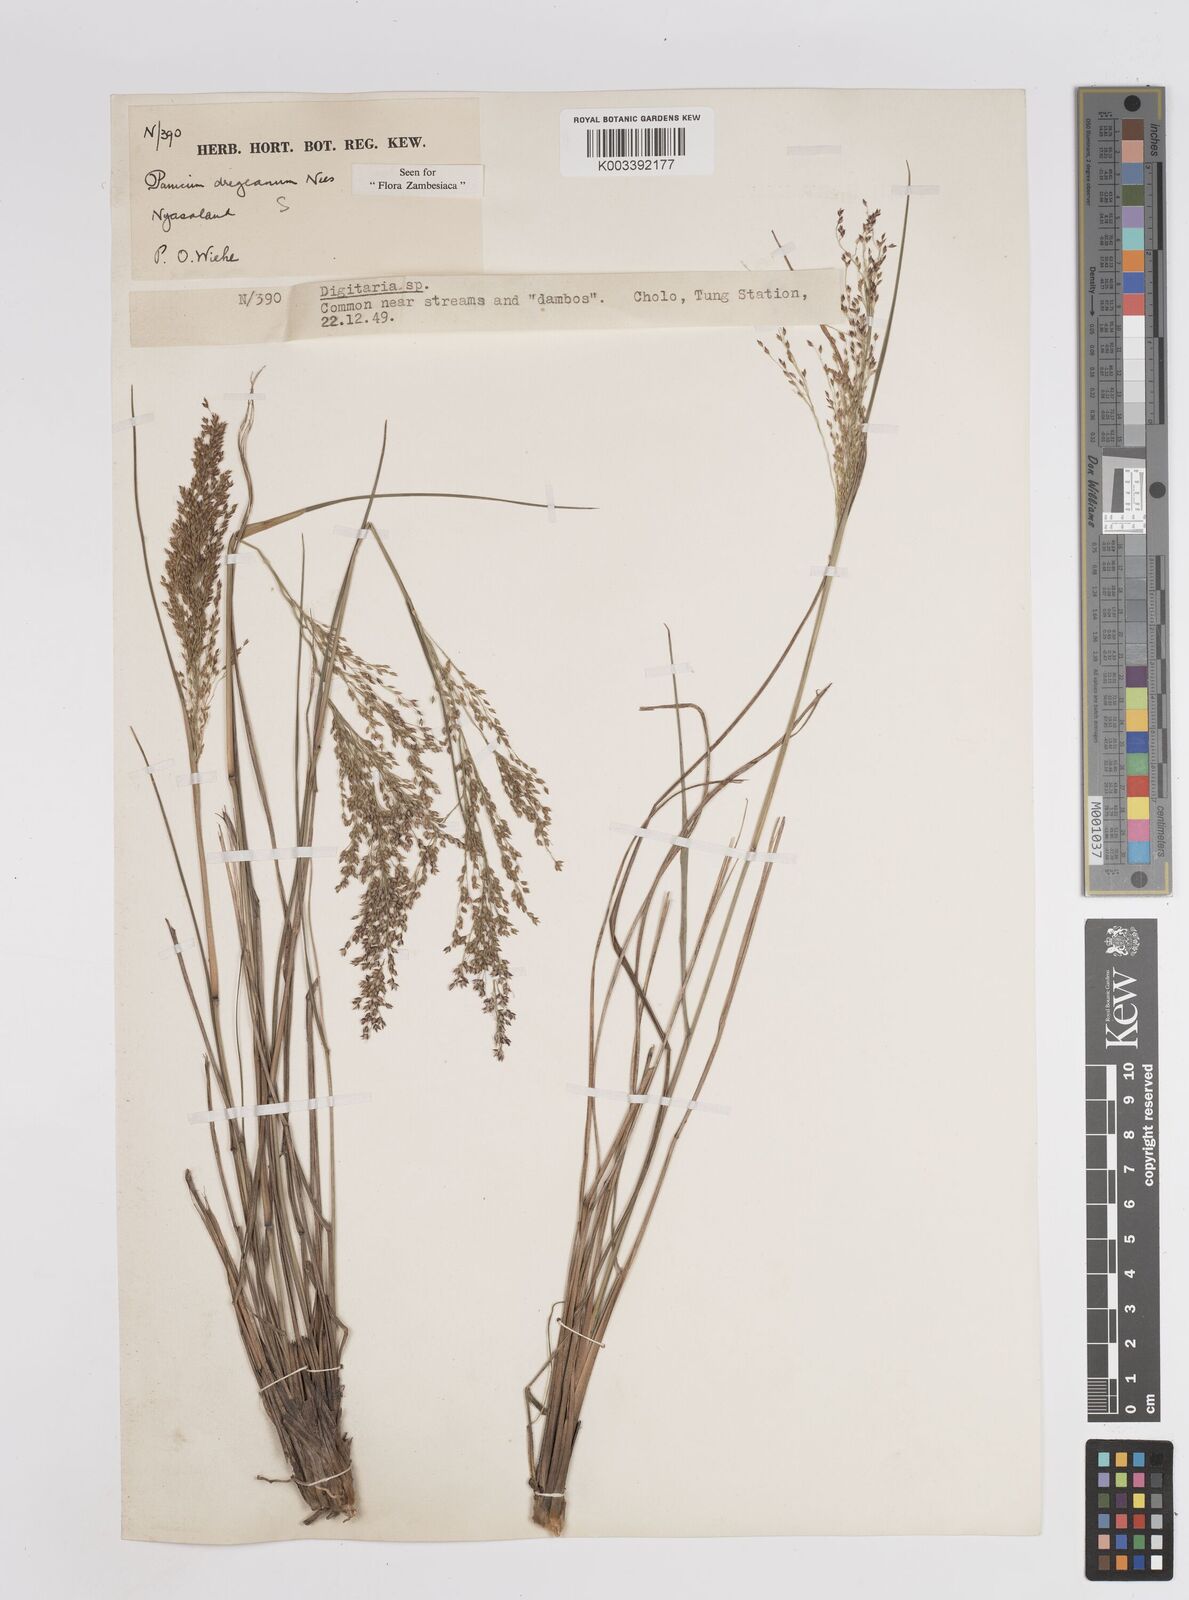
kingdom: Plantae
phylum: Tracheophyta
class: Liliopsida
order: Poales
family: Poaceae
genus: Panicum
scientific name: Panicum dregeanum
